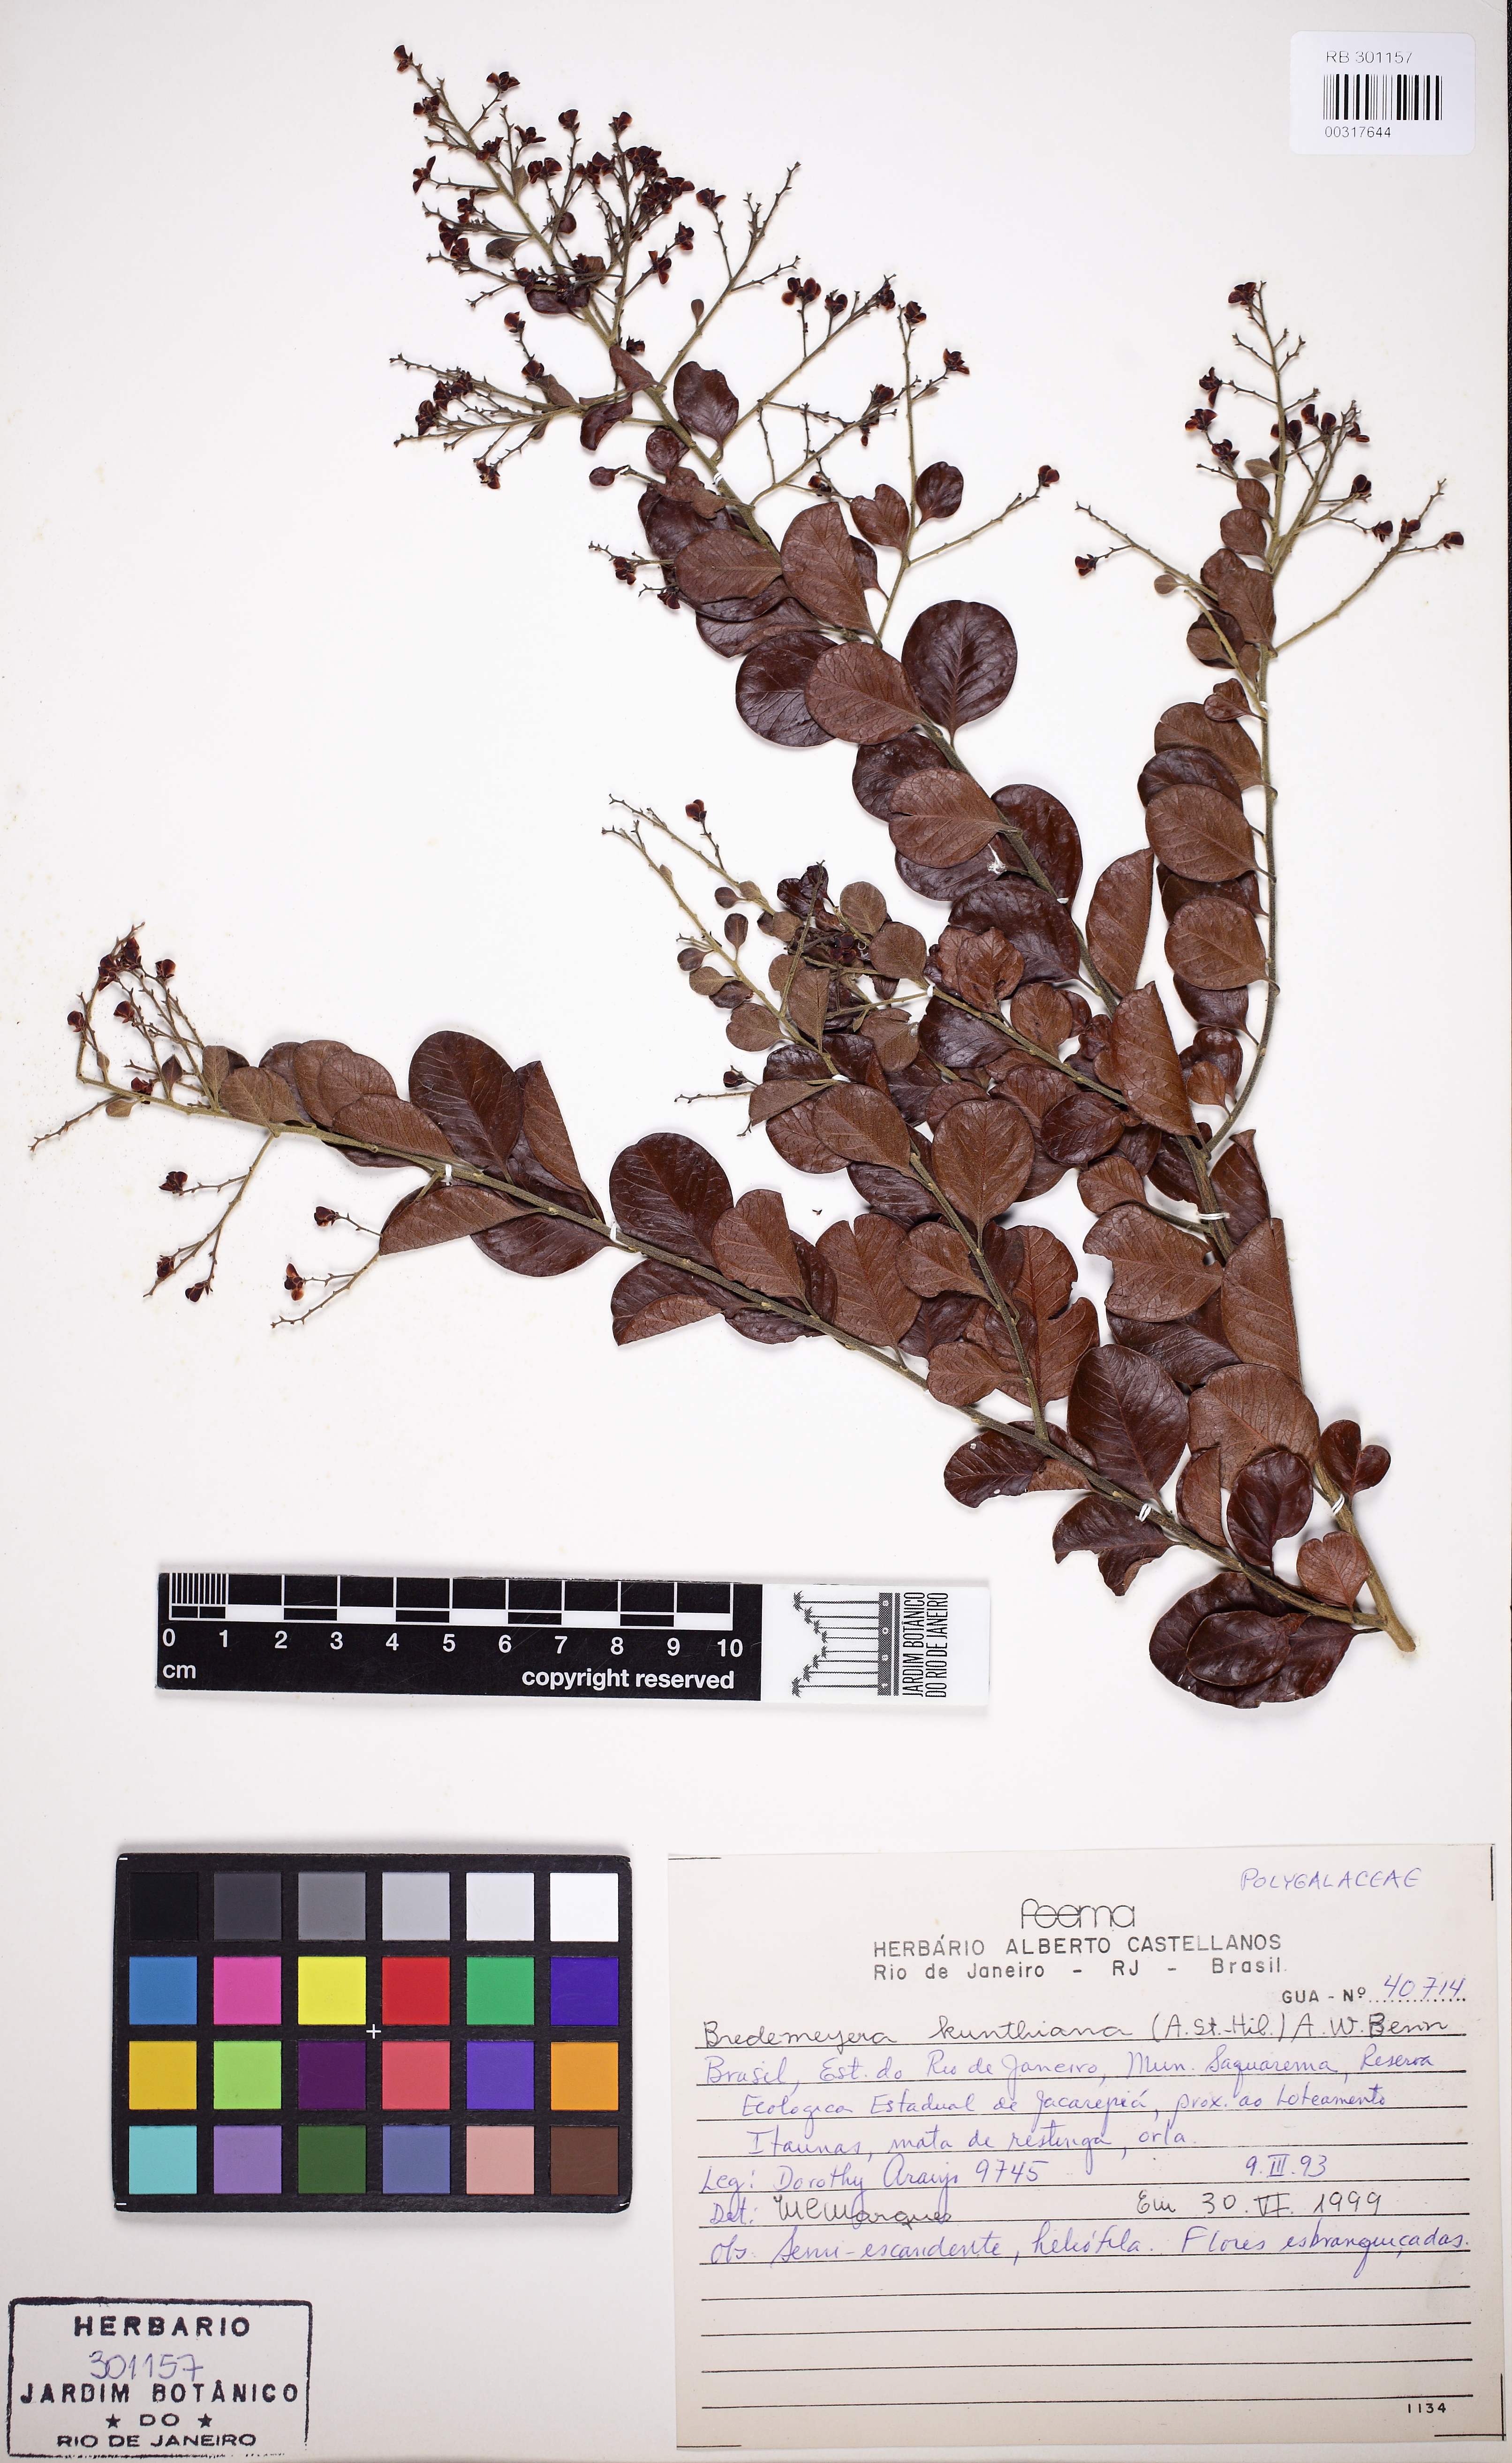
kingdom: Plantae
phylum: Tracheophyta
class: Magnoliopsida
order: Fabales
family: Polygalaceae
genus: Bredemeyera
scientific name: Bredemeyera hebeclada
